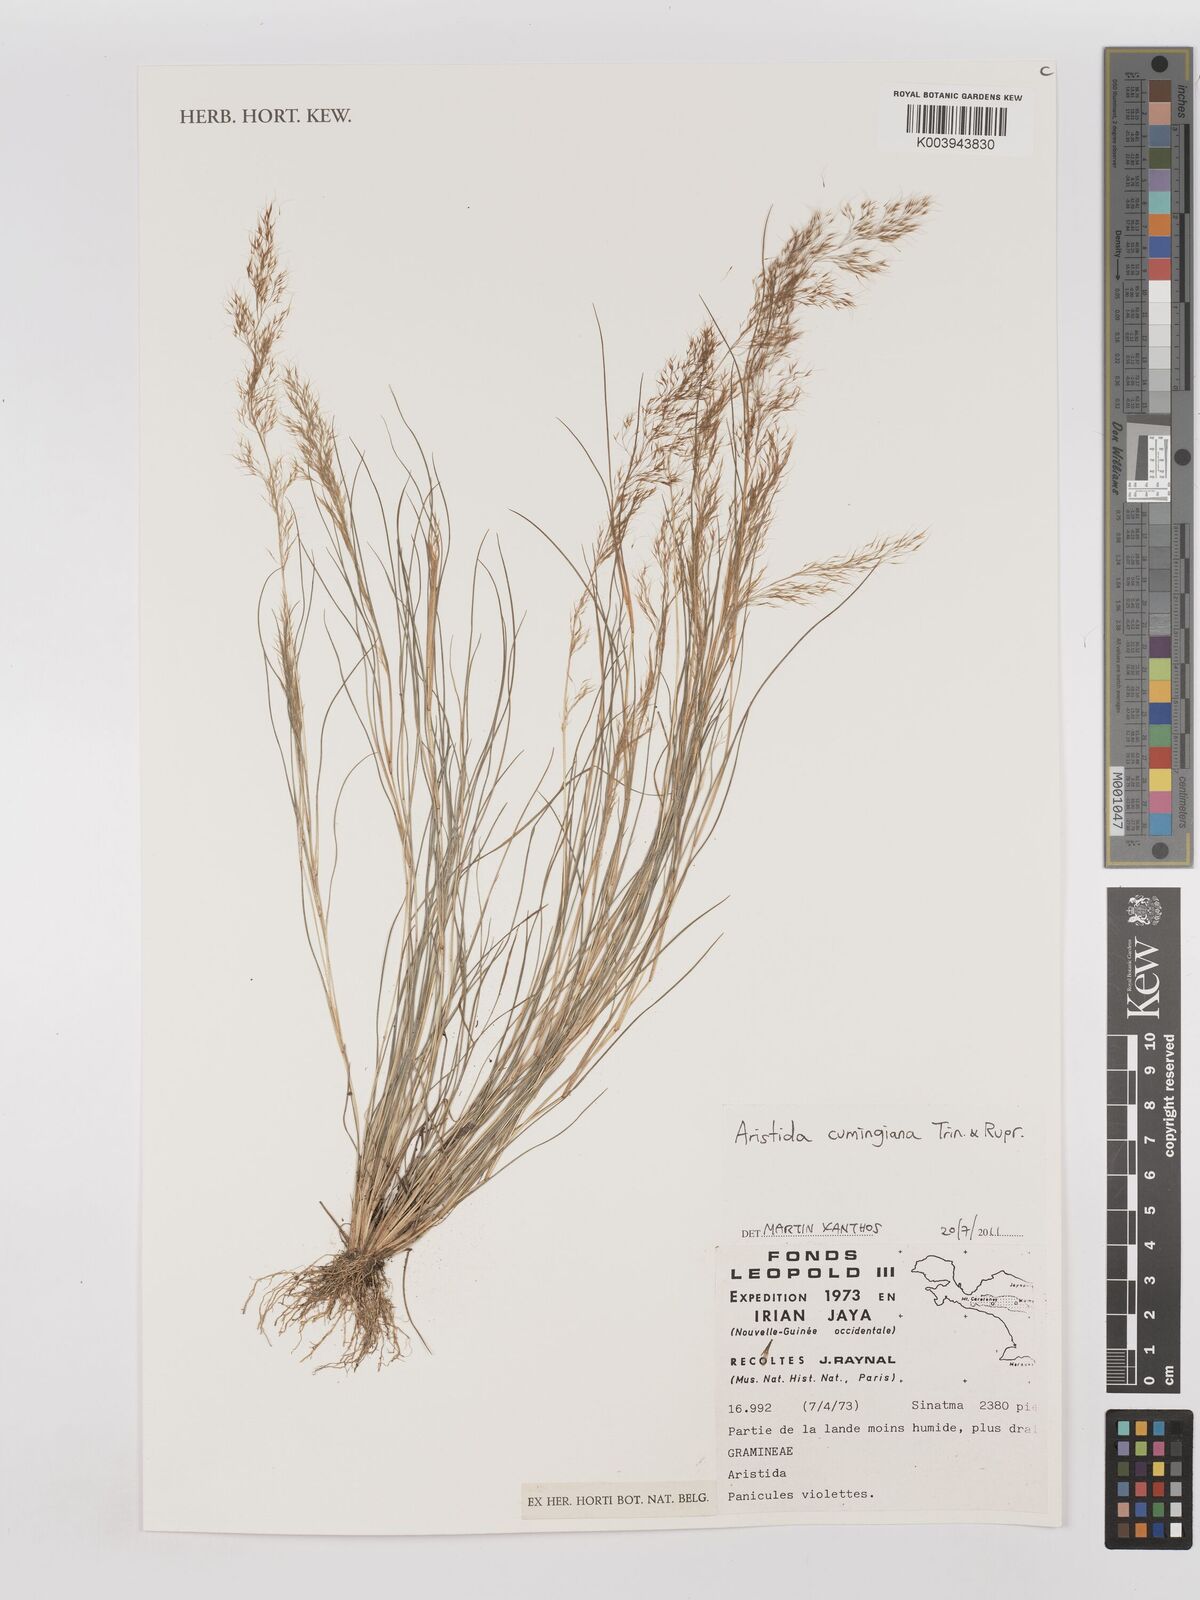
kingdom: Plantae
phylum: Tracheophyta
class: Liliopsida
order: Poales
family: Poaceae
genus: Aristida
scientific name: Aristida cumingiana
